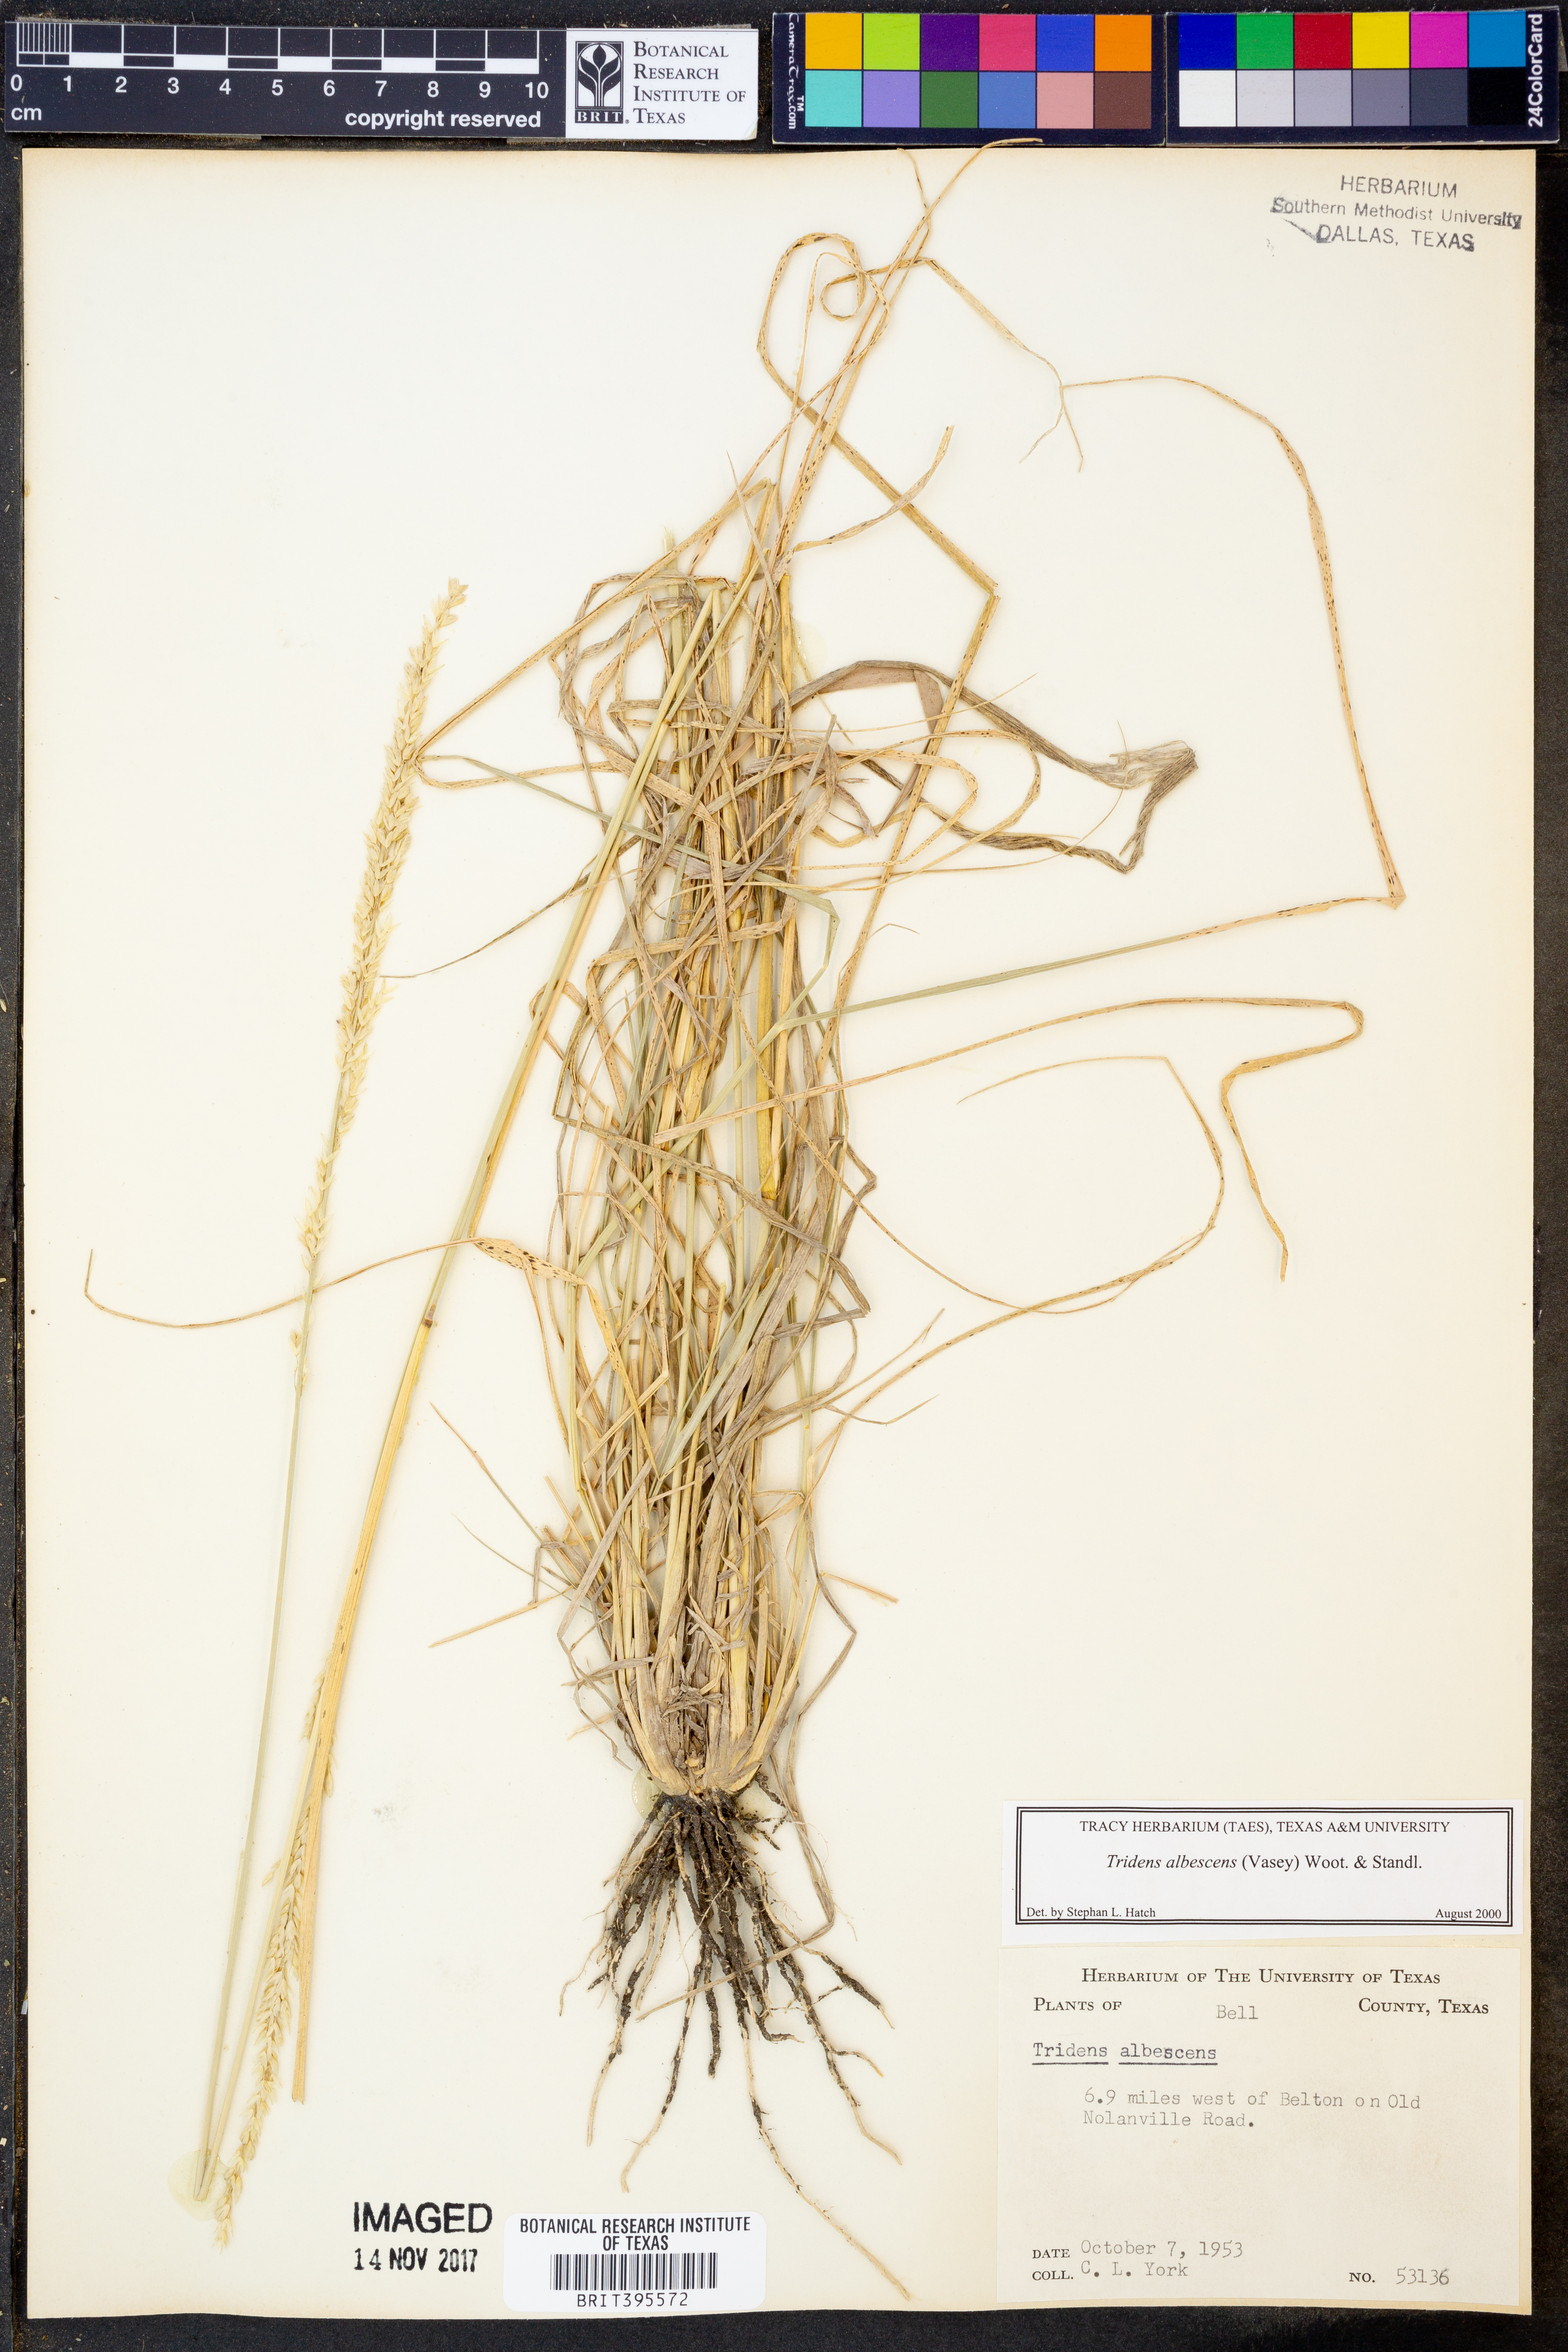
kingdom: Plantae
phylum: Tracheophyta
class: Liliopsida
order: Poales
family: Poaceae
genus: Tridens
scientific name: Tridens albescens
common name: White tridens
